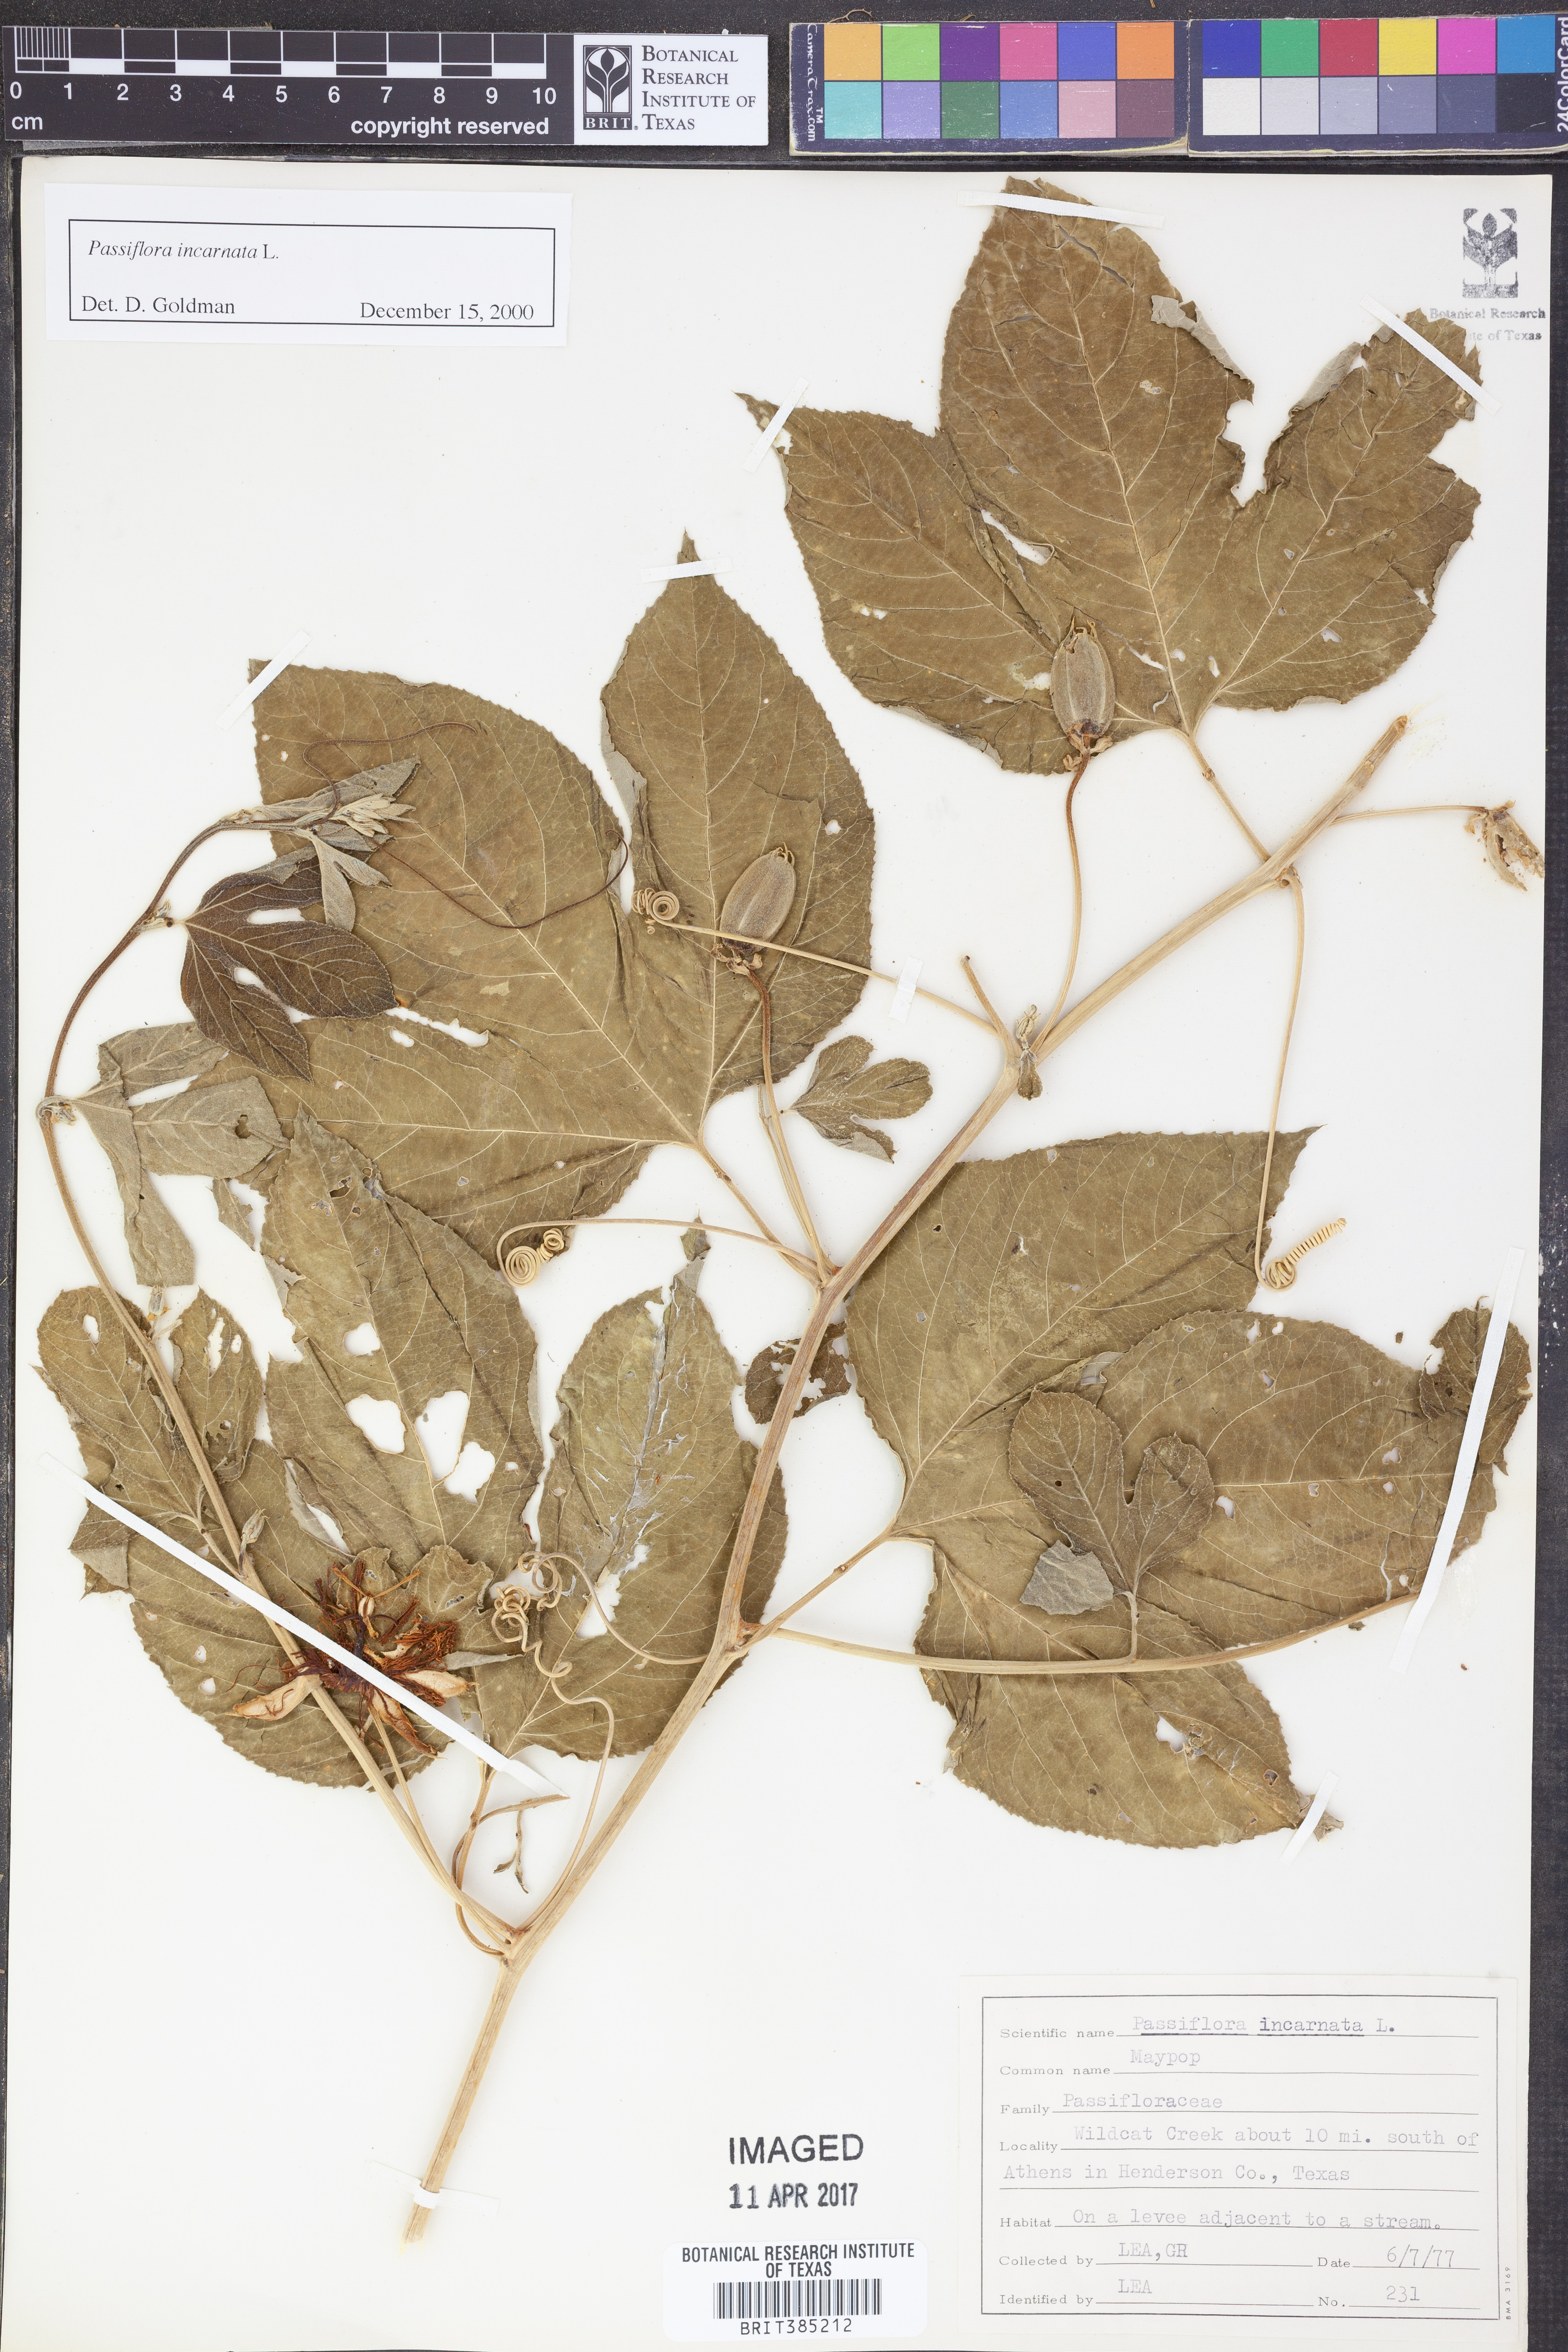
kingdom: Plantae
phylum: Tracheophyta
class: Magnoliopsida
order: Malpighiales
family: Passifloraceae
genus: Passiflora
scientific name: Passiflora incarnata
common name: Apricot-vine
